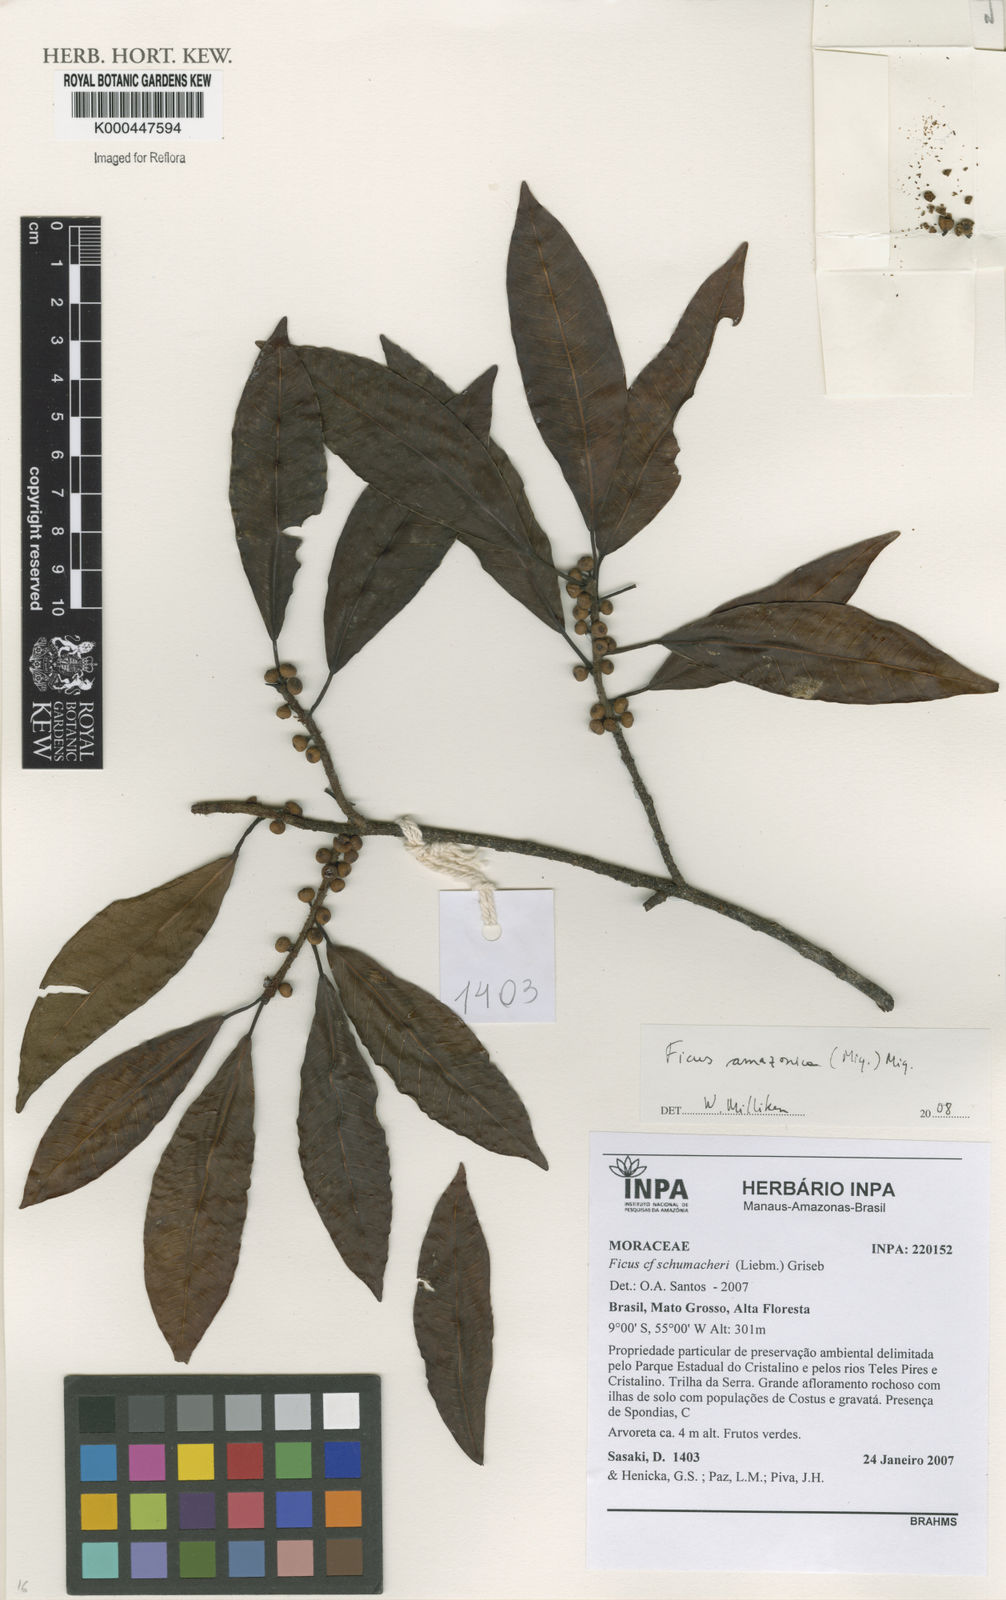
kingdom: Plantae
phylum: Tracheophyta
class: Magnoliopsida
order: Rosales
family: Moraceae
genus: Ficus
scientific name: Ficus amazonica
